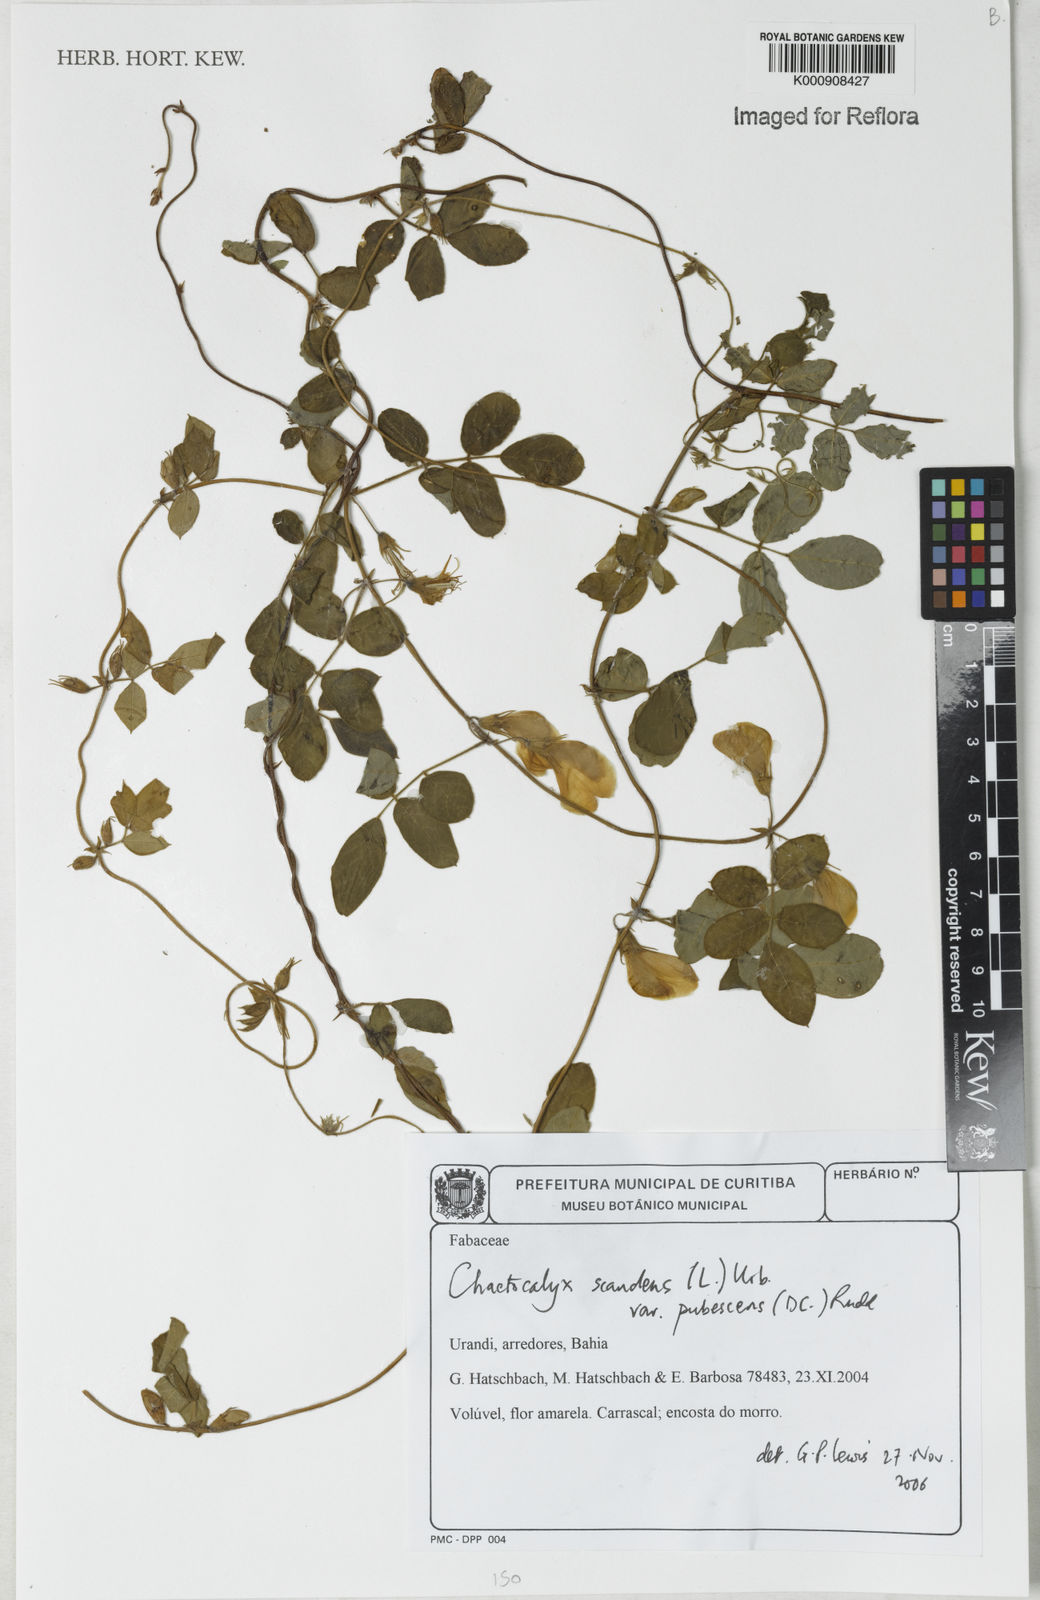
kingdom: Plantae
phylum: Tracheophyta
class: Magnoliopsida
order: Fabales
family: Fabaceae
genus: Nissolia
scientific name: Nissolia vincentina
